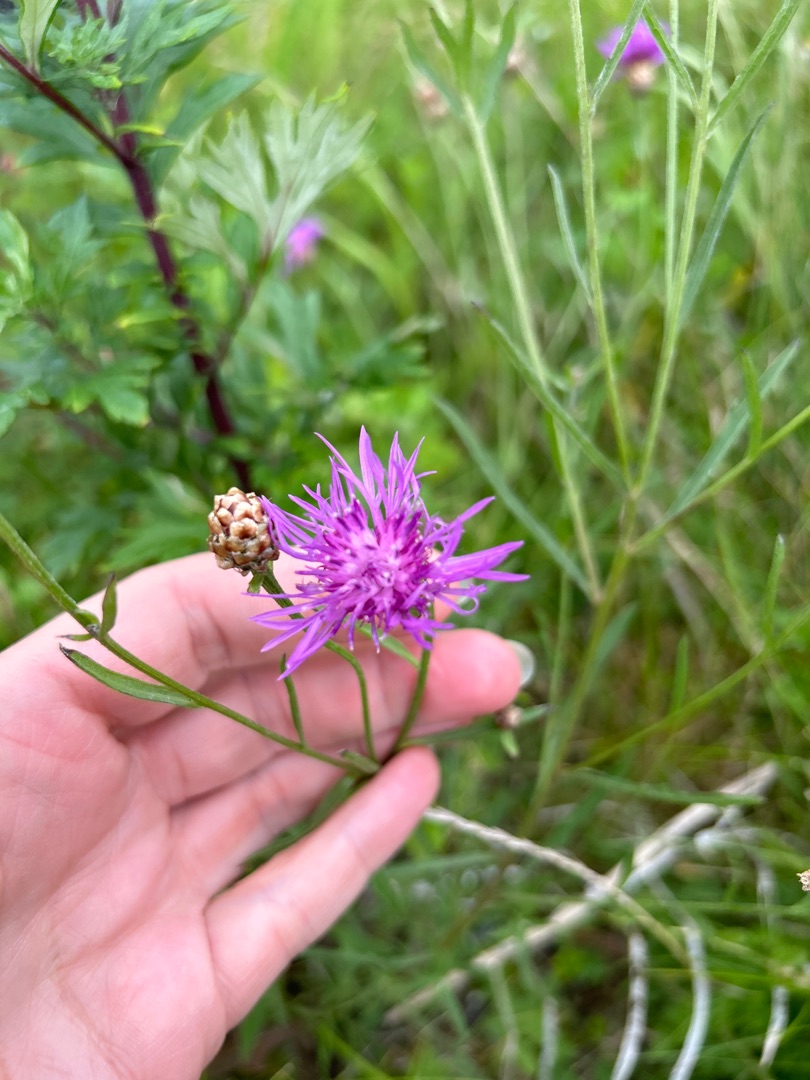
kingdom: Plantae
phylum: Tracheophyta
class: Magnoliopsida
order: Asterales
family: Asteraceae
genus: Centaurea
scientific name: Centaurea jacea
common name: Almindelig knopurt
